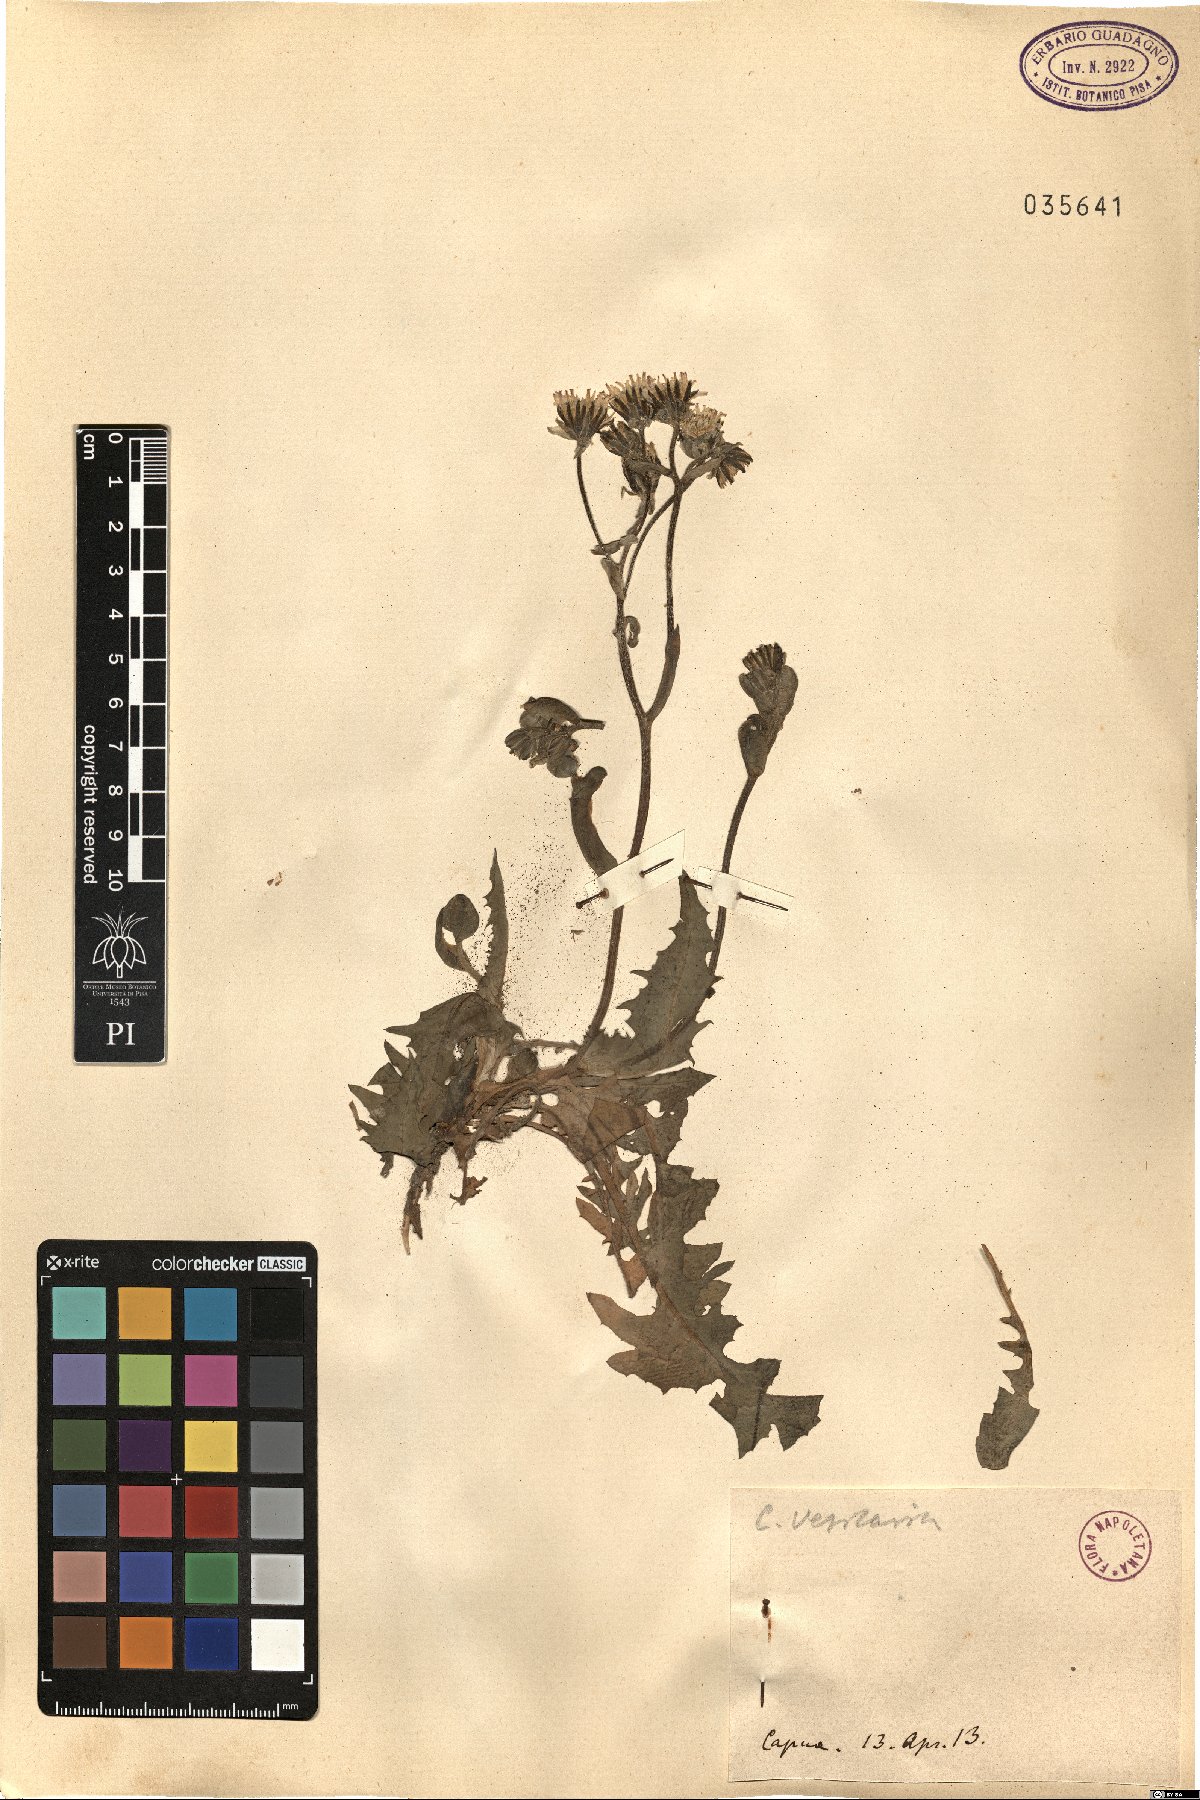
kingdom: Plantae
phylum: Tracheophyta
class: Magnoliopsida
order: Asterales
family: Asteraceae
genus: Crepis
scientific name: Crepis vesicaria
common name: Beaked hawksbeard
